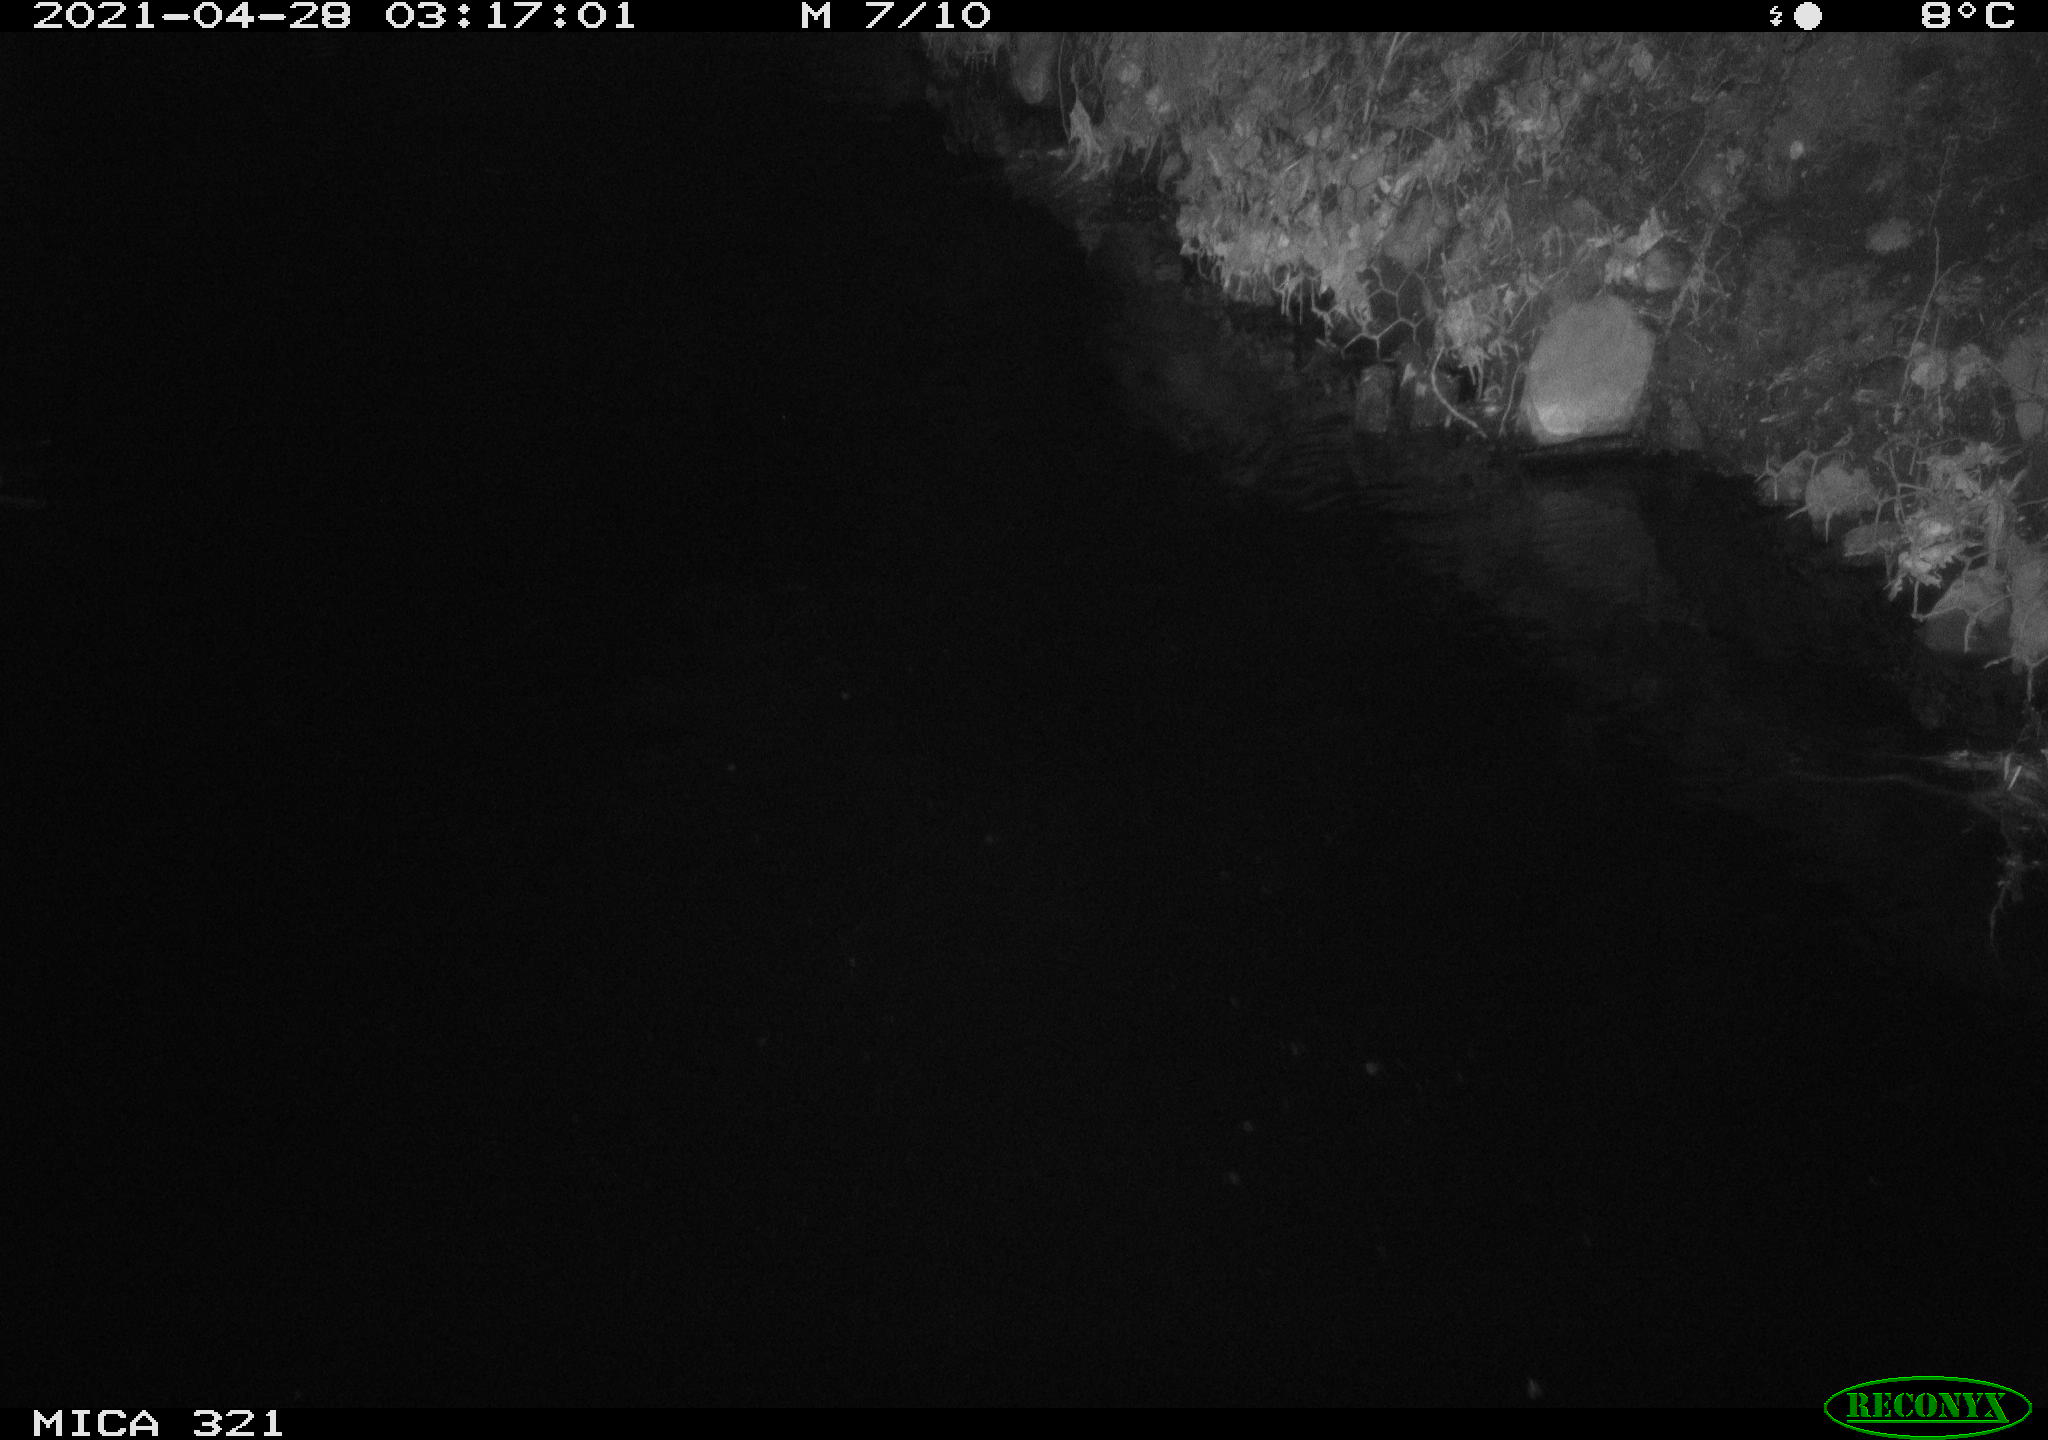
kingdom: Animalia
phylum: Chordata
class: Aves
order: Anseriformes
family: Anatidae
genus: Anas
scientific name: Anas
